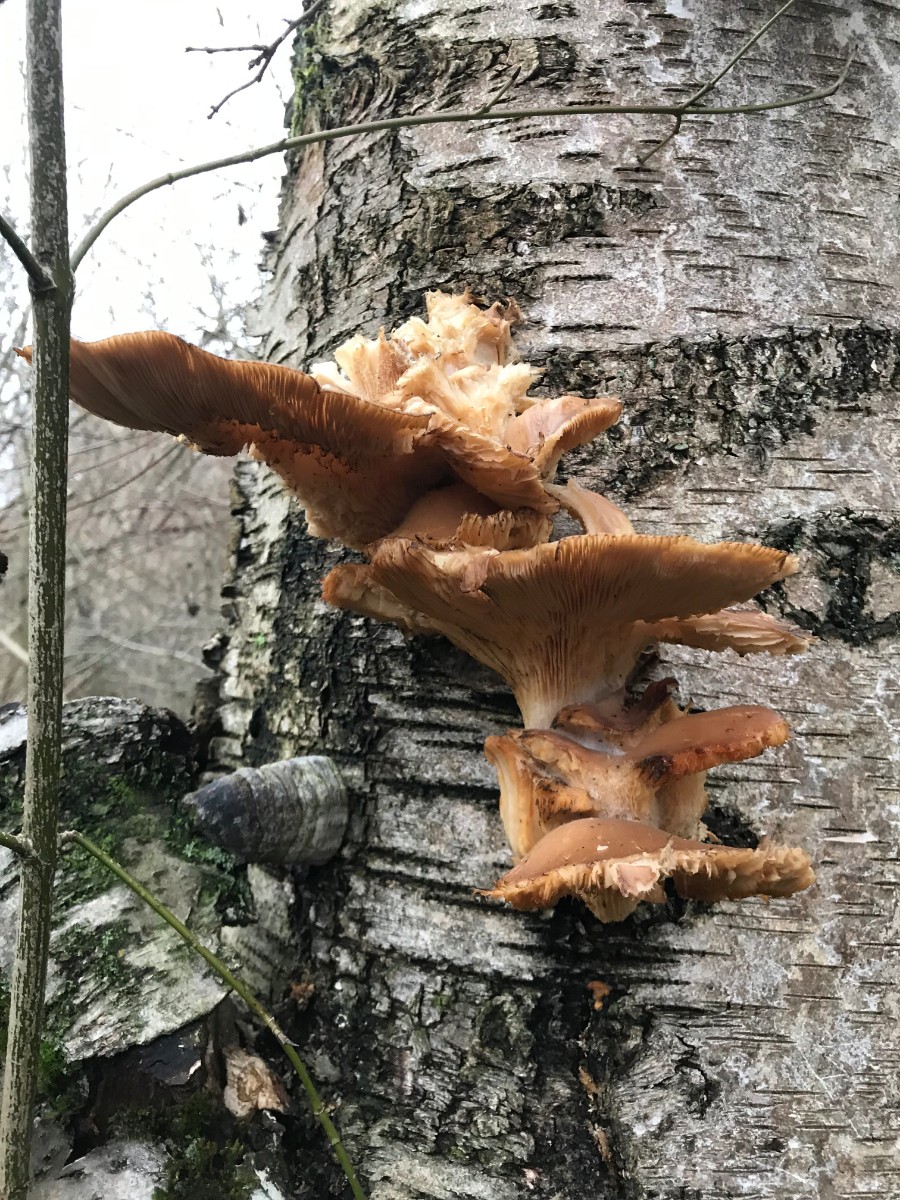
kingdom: Fungi
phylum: Basidiomycota
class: Agaricomycetes
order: Agaricales
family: Pleurotaceae
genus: Pleurotus
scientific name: Pleurotus ostreatus
